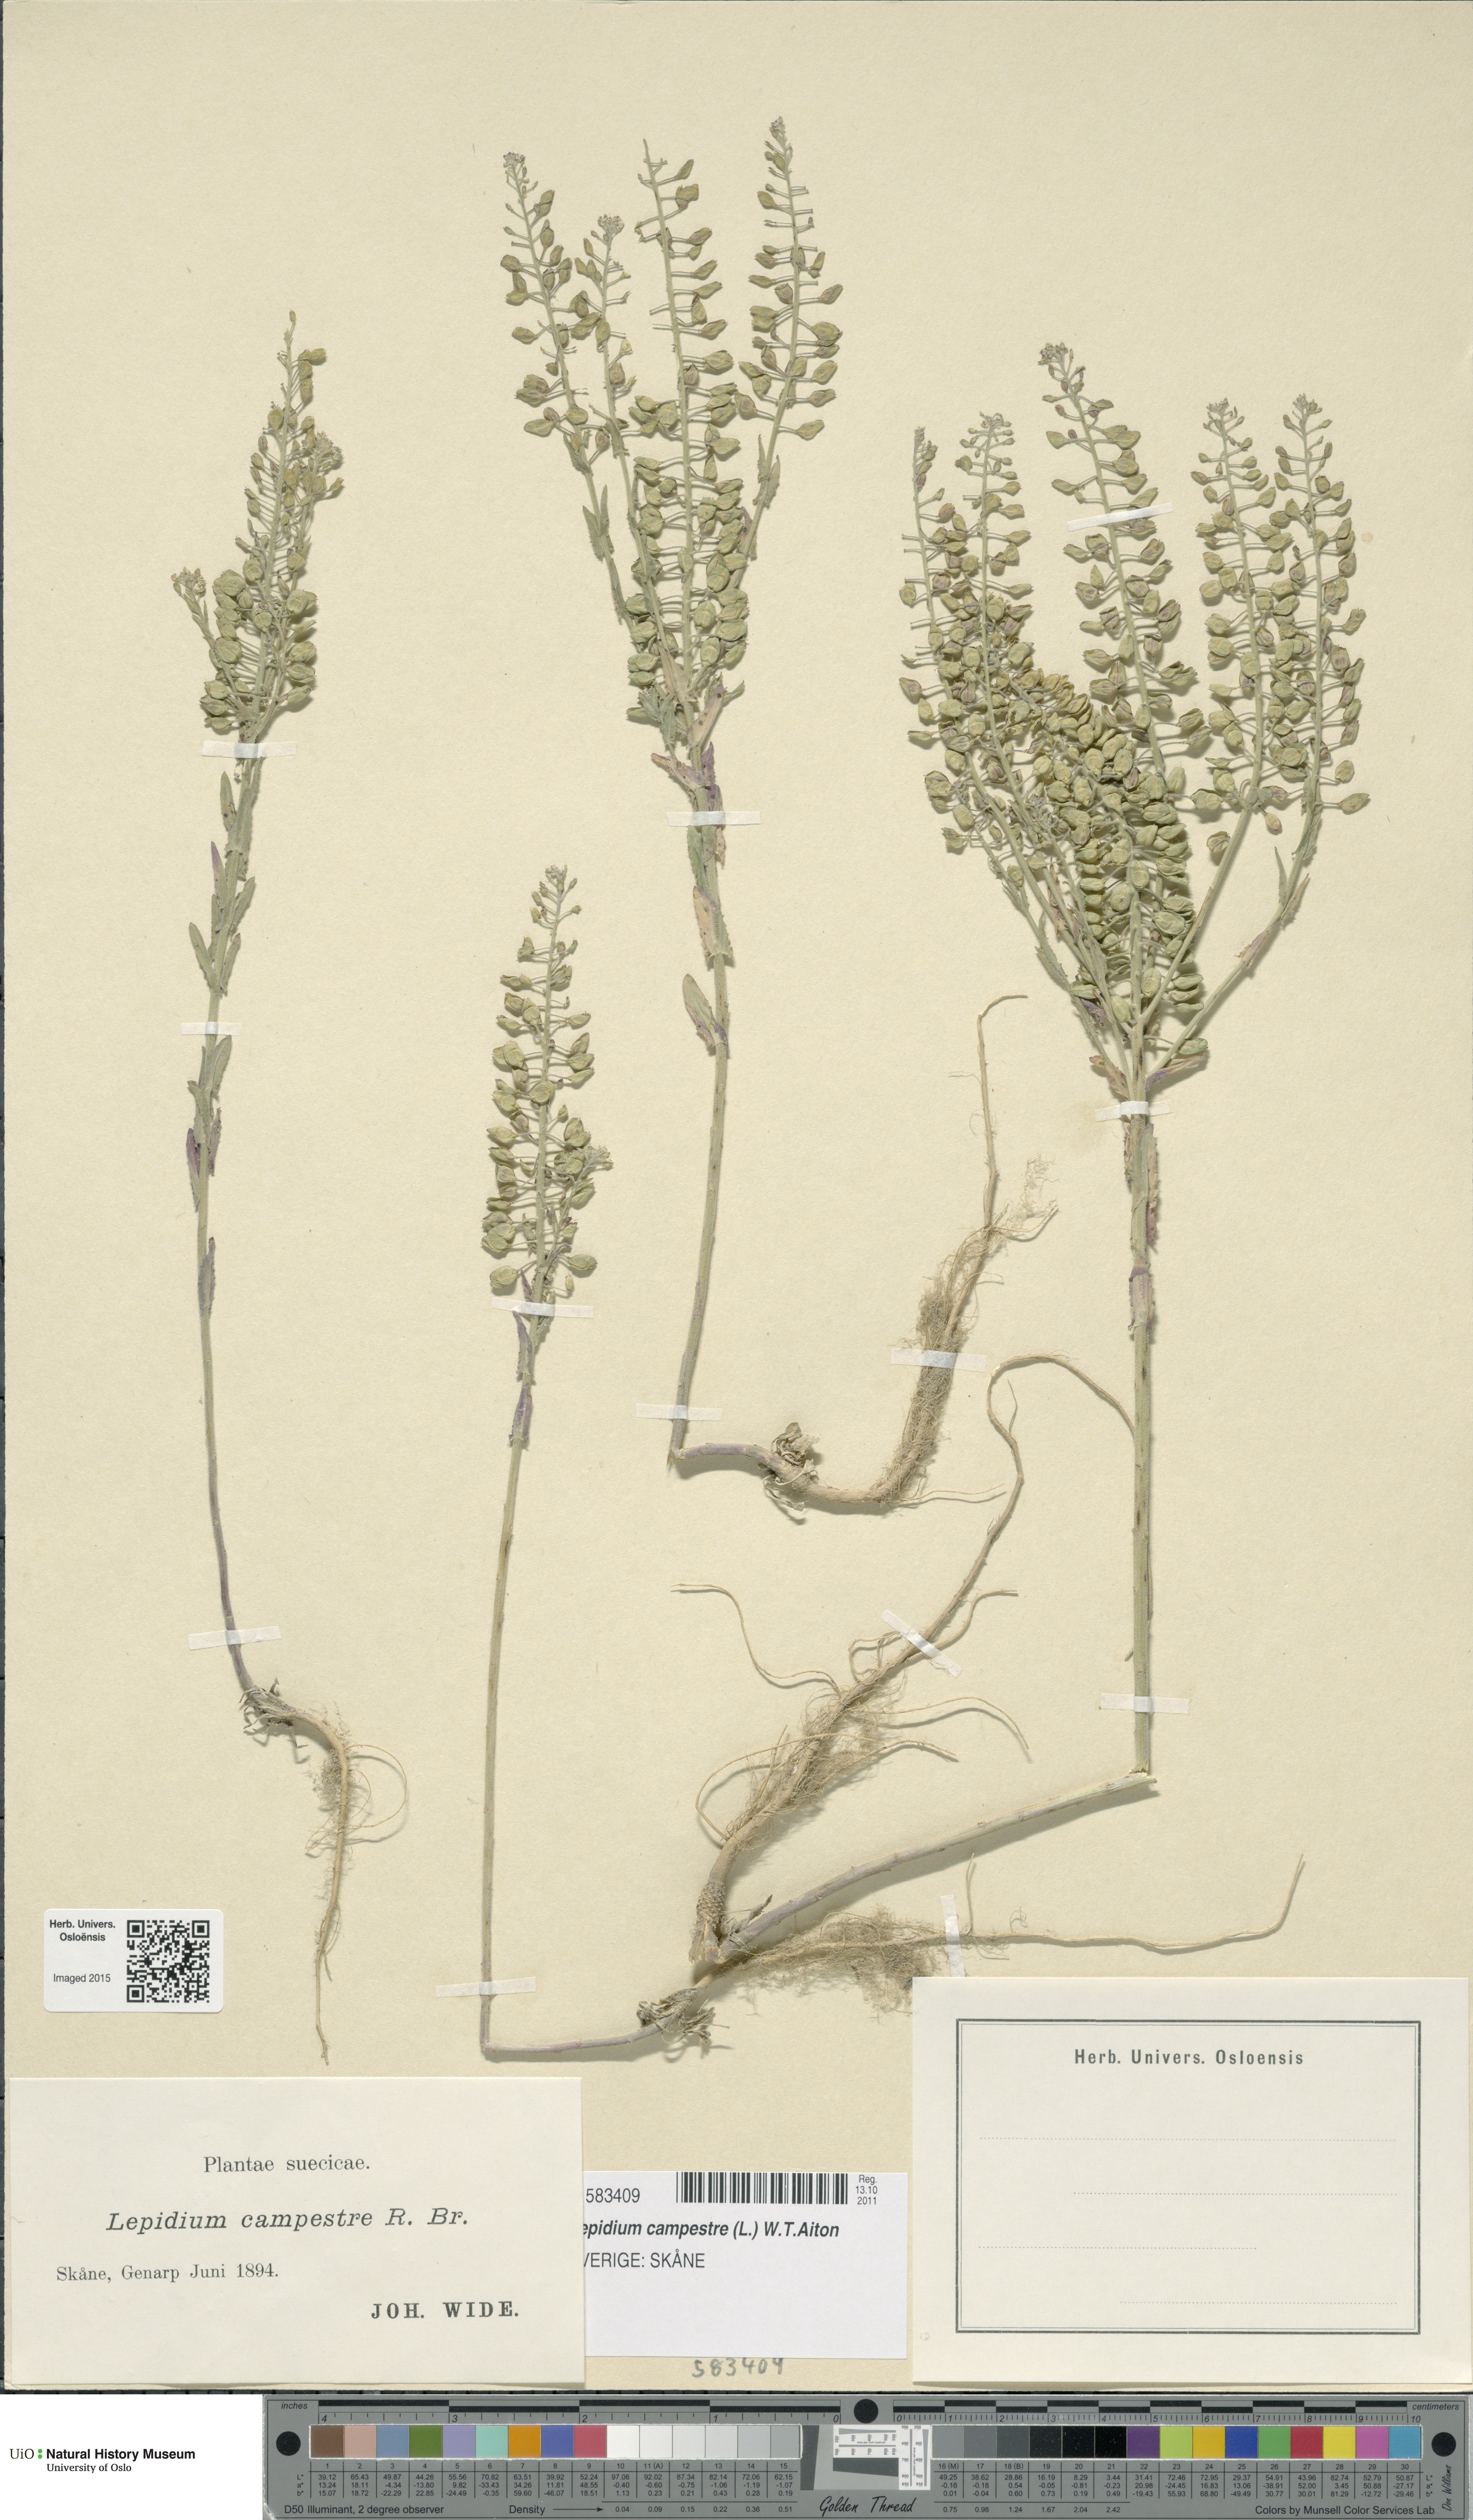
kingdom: Plantae
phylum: Tracheophyta
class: Magnoliopsida
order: Brassicales
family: Brassicaceae
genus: Lepidium
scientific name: Lepidium campestre
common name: Field pepperwort
